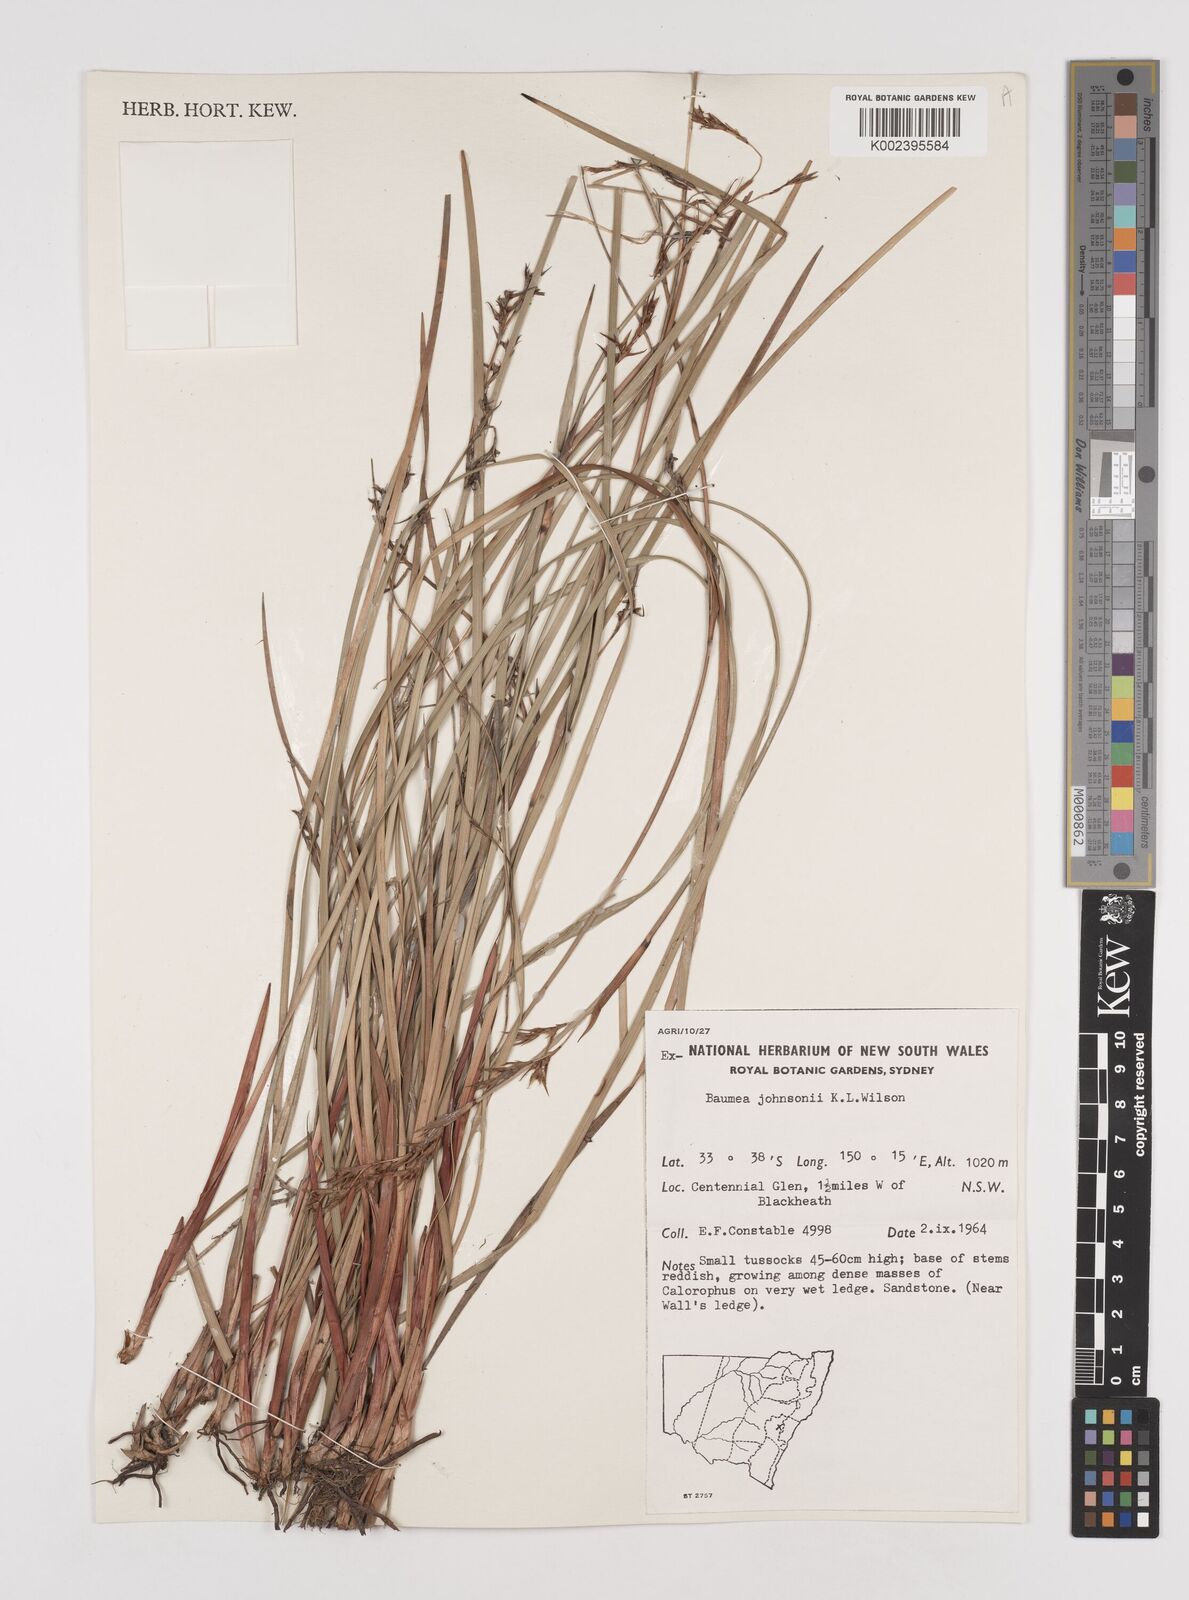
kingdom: Plantae
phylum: Tracheophyta
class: Liliopsida
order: Poales
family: Cyperaceae
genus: Machaerina
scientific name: Machaerina johnsonii
